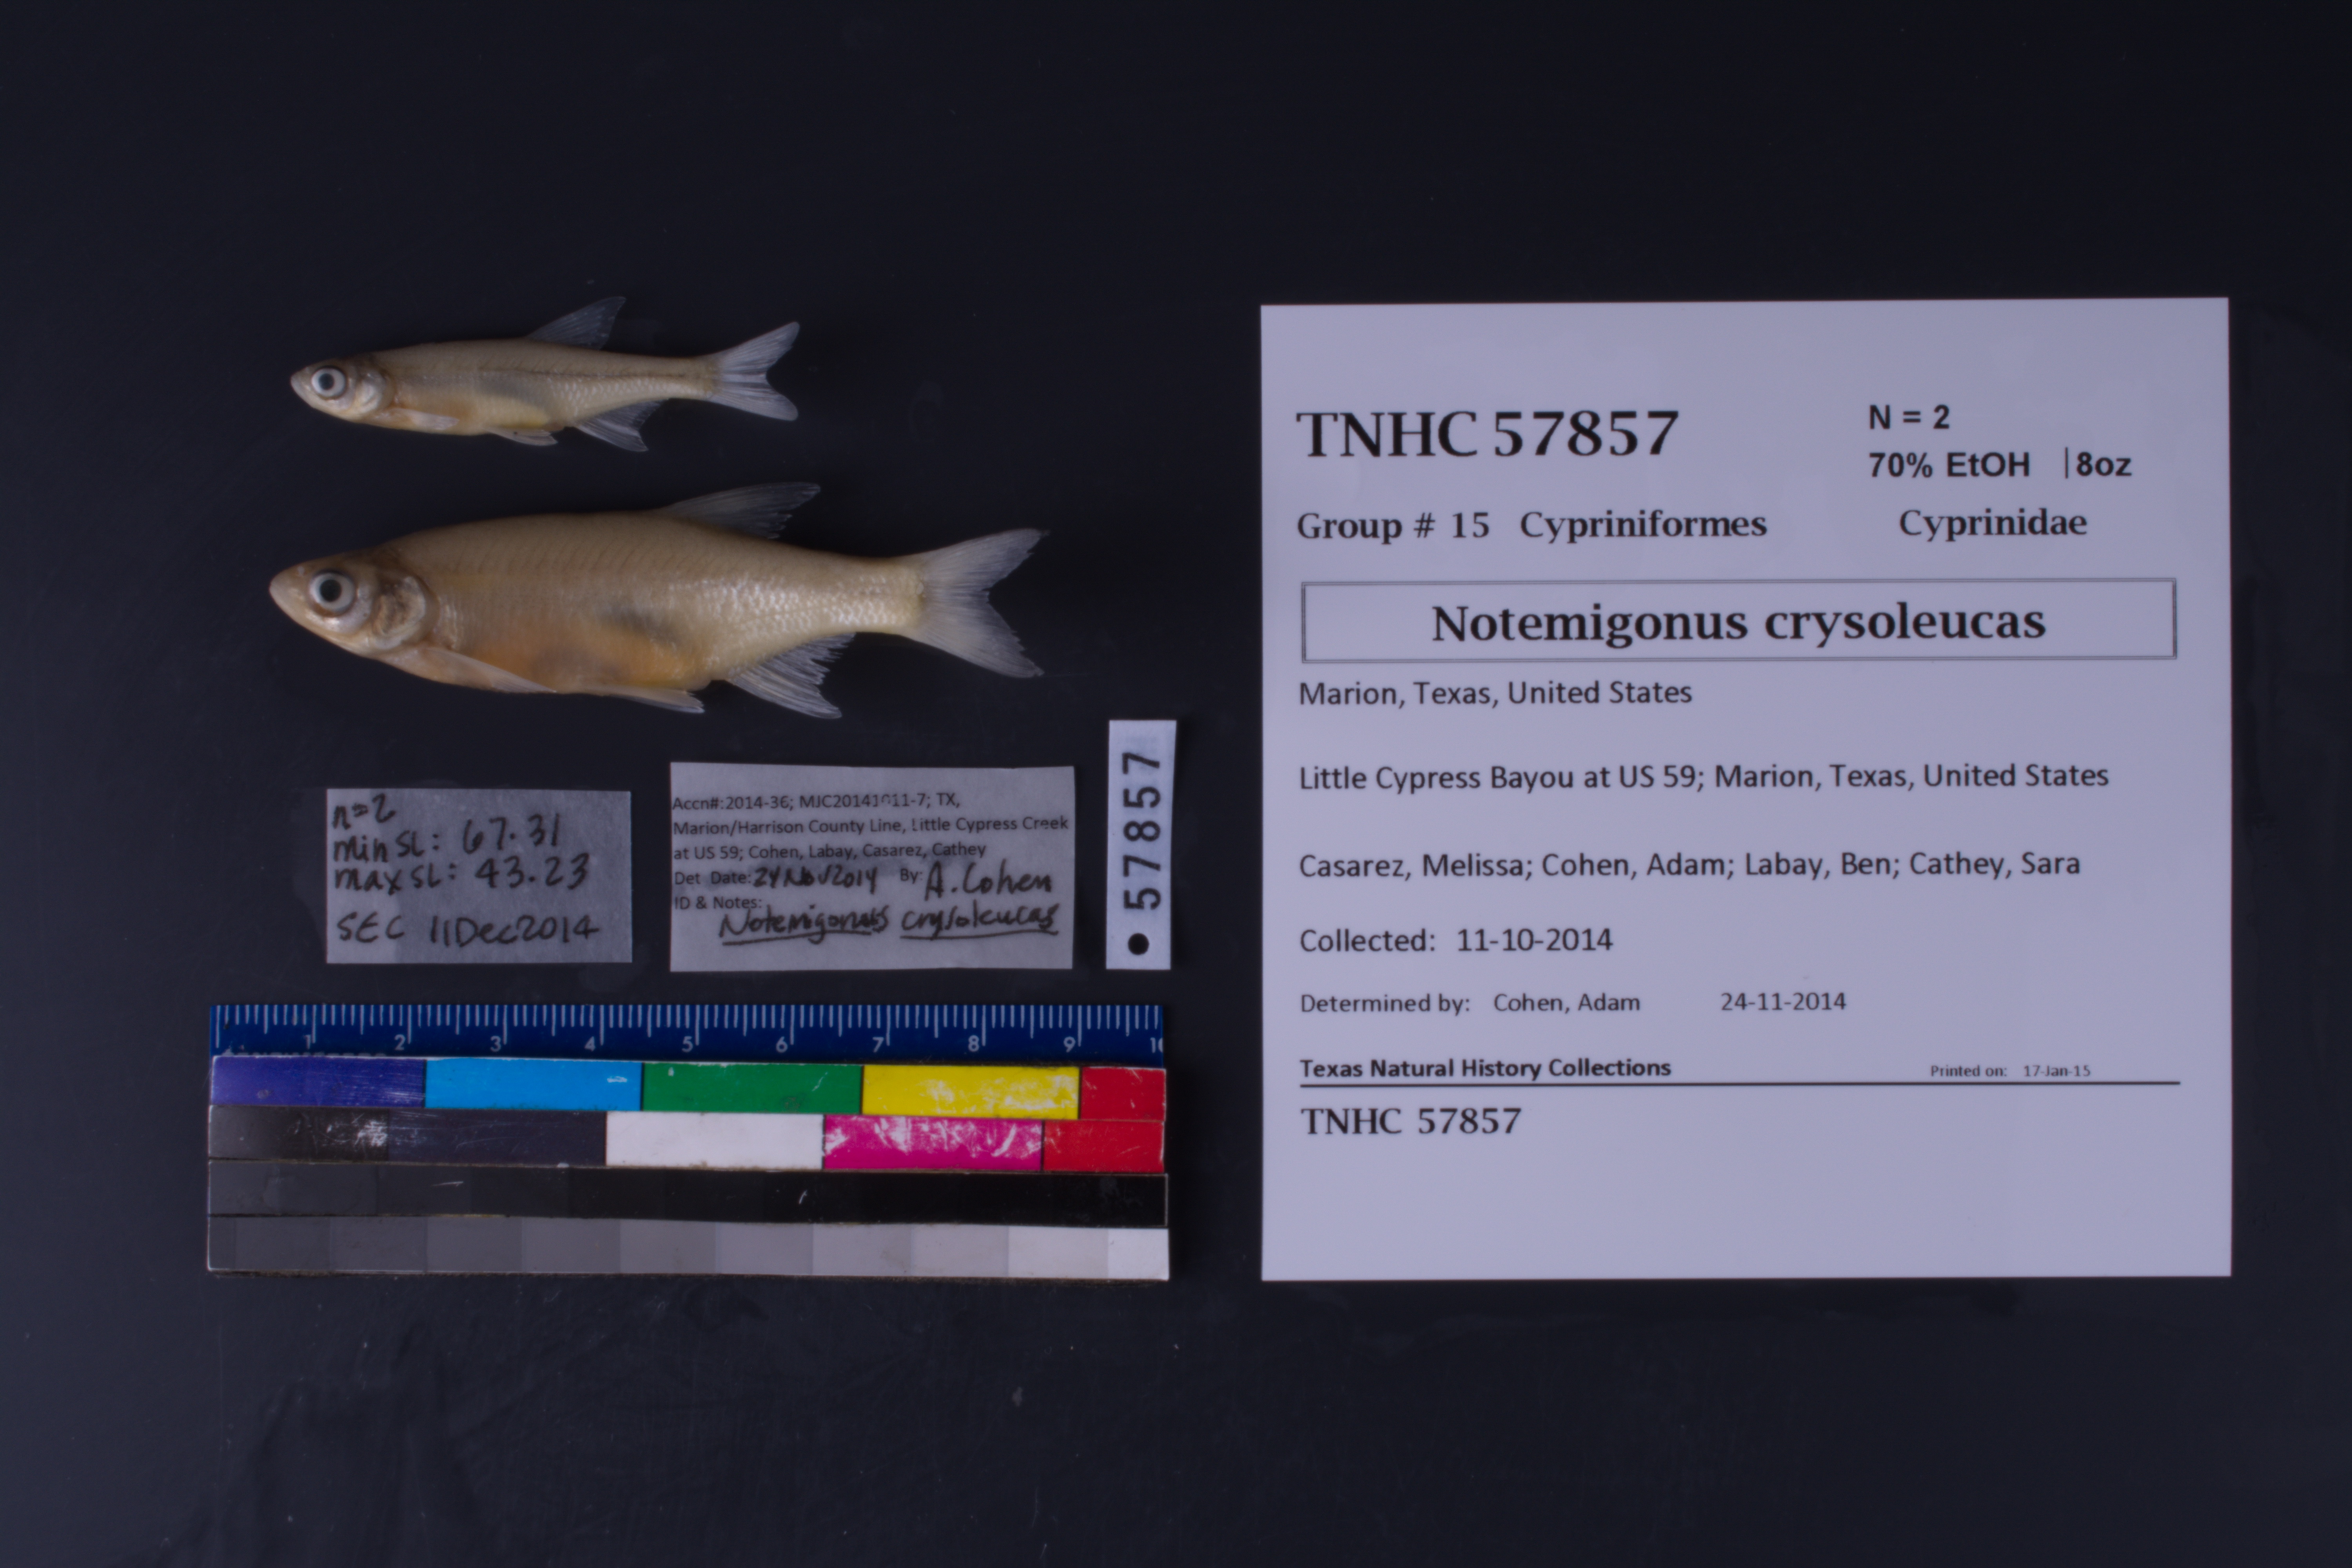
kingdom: Animalia
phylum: Chordata
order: Cypriniformes
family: Cyprinidae
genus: Notemigonus
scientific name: Notemigonus crysoleucas
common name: Golden shiner
